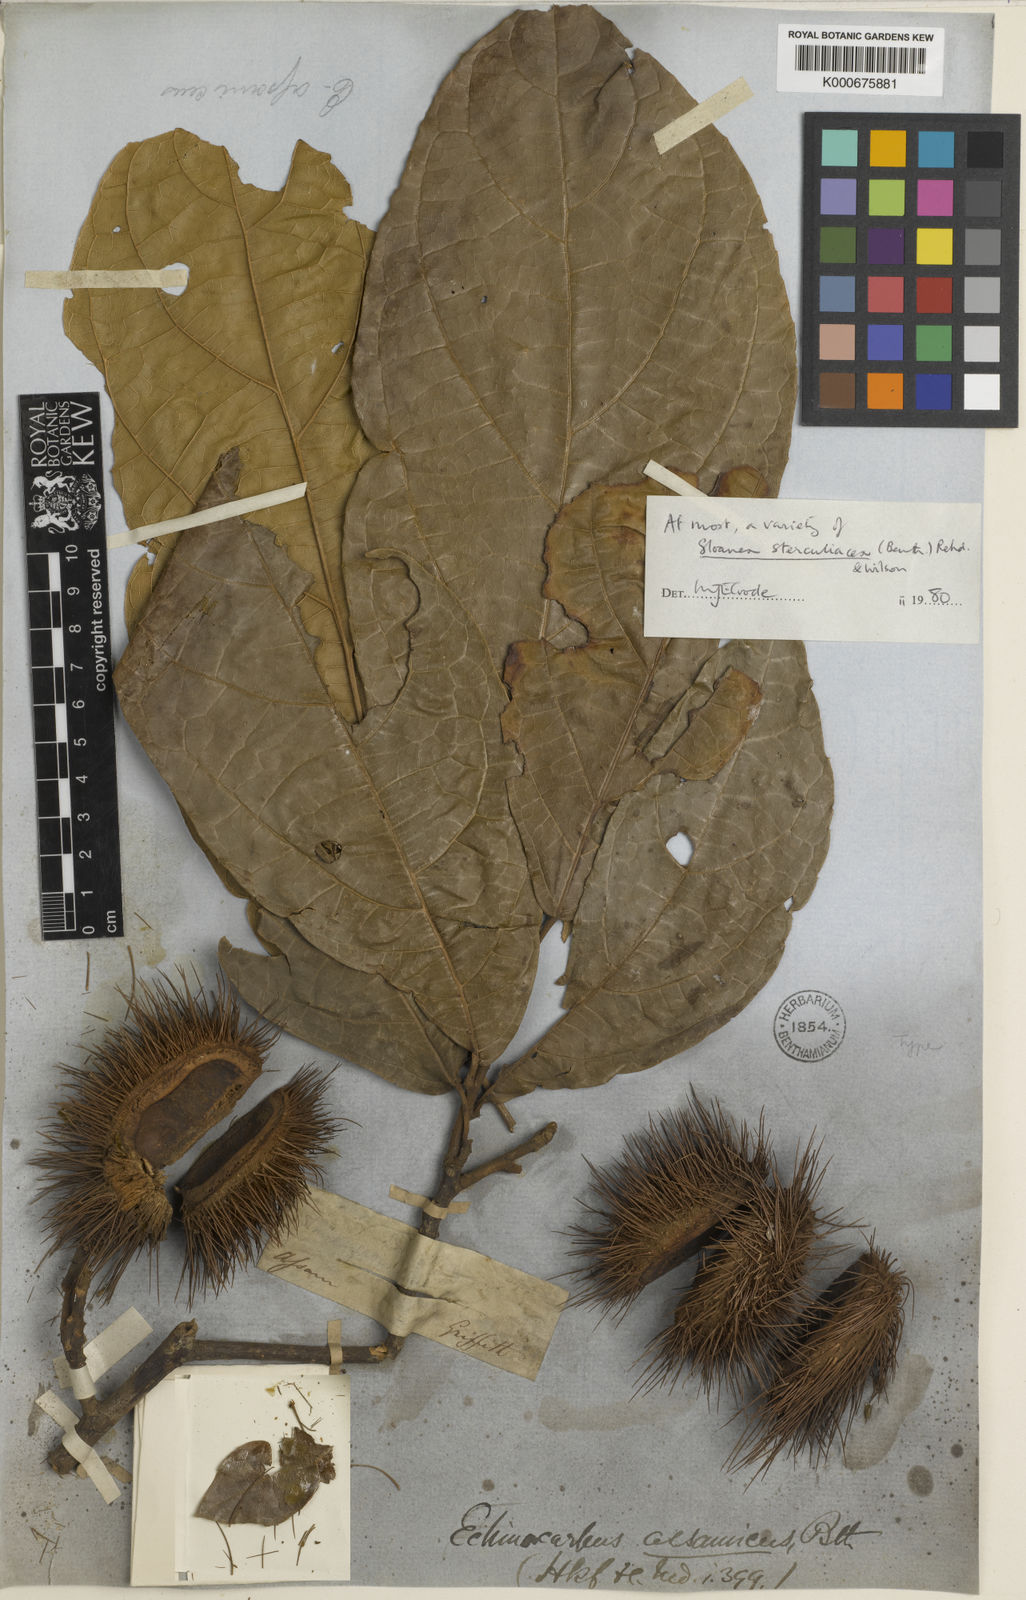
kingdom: Plantae
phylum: Tracheophyta
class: Magnoliopsida
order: Oxalidales
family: Elaeocarpaceae
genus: Sloanea
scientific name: Sloanea sterculiacea
